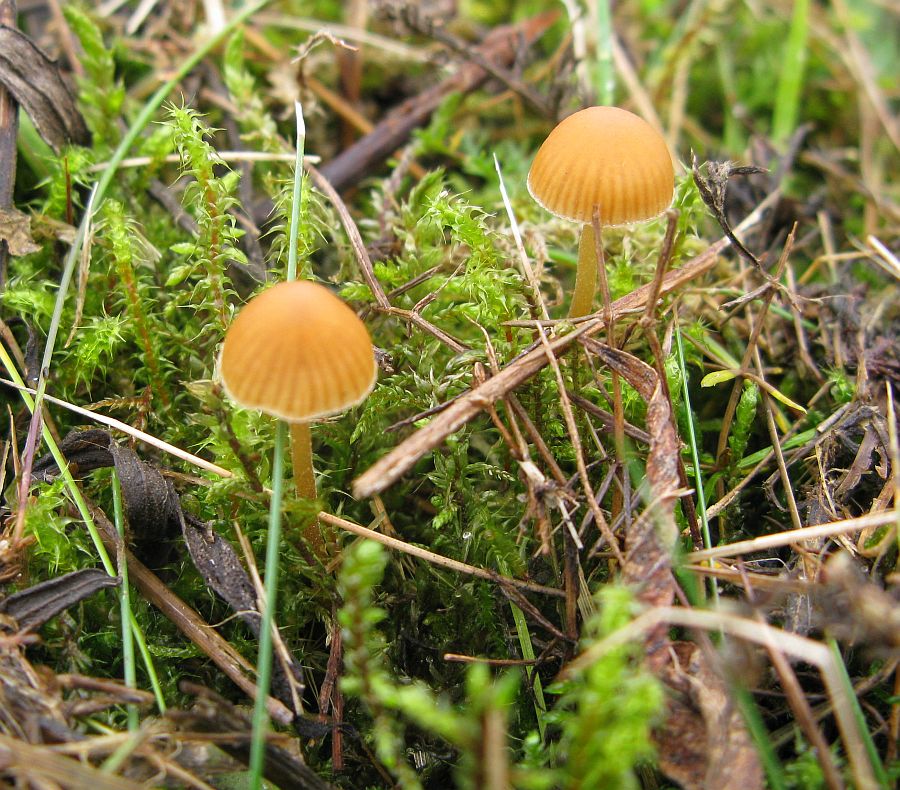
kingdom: Fungi
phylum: Basidiomycota
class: Agaricomycetes
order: Agaricales
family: Hymenogastraceae
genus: Galerina
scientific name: Galerina vittiformis
